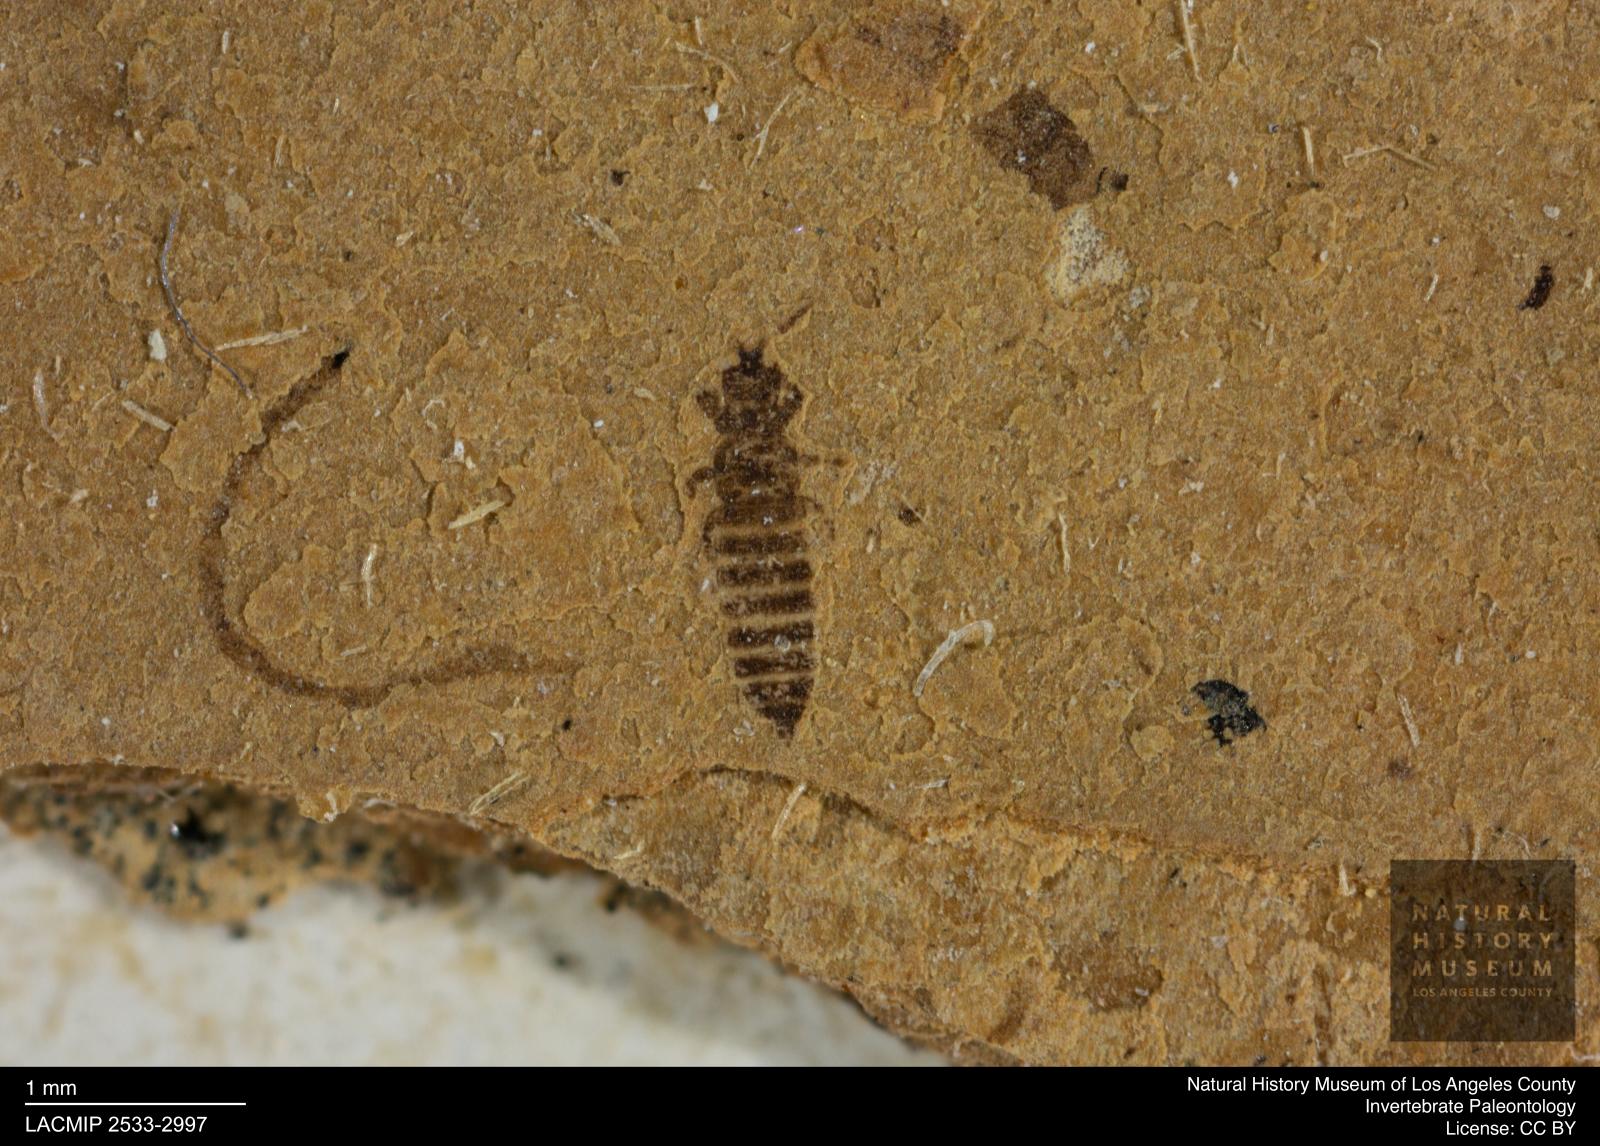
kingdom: Animalia
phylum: Arthropoda
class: Insecta
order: Thysanoptera
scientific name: Thysanoptera
